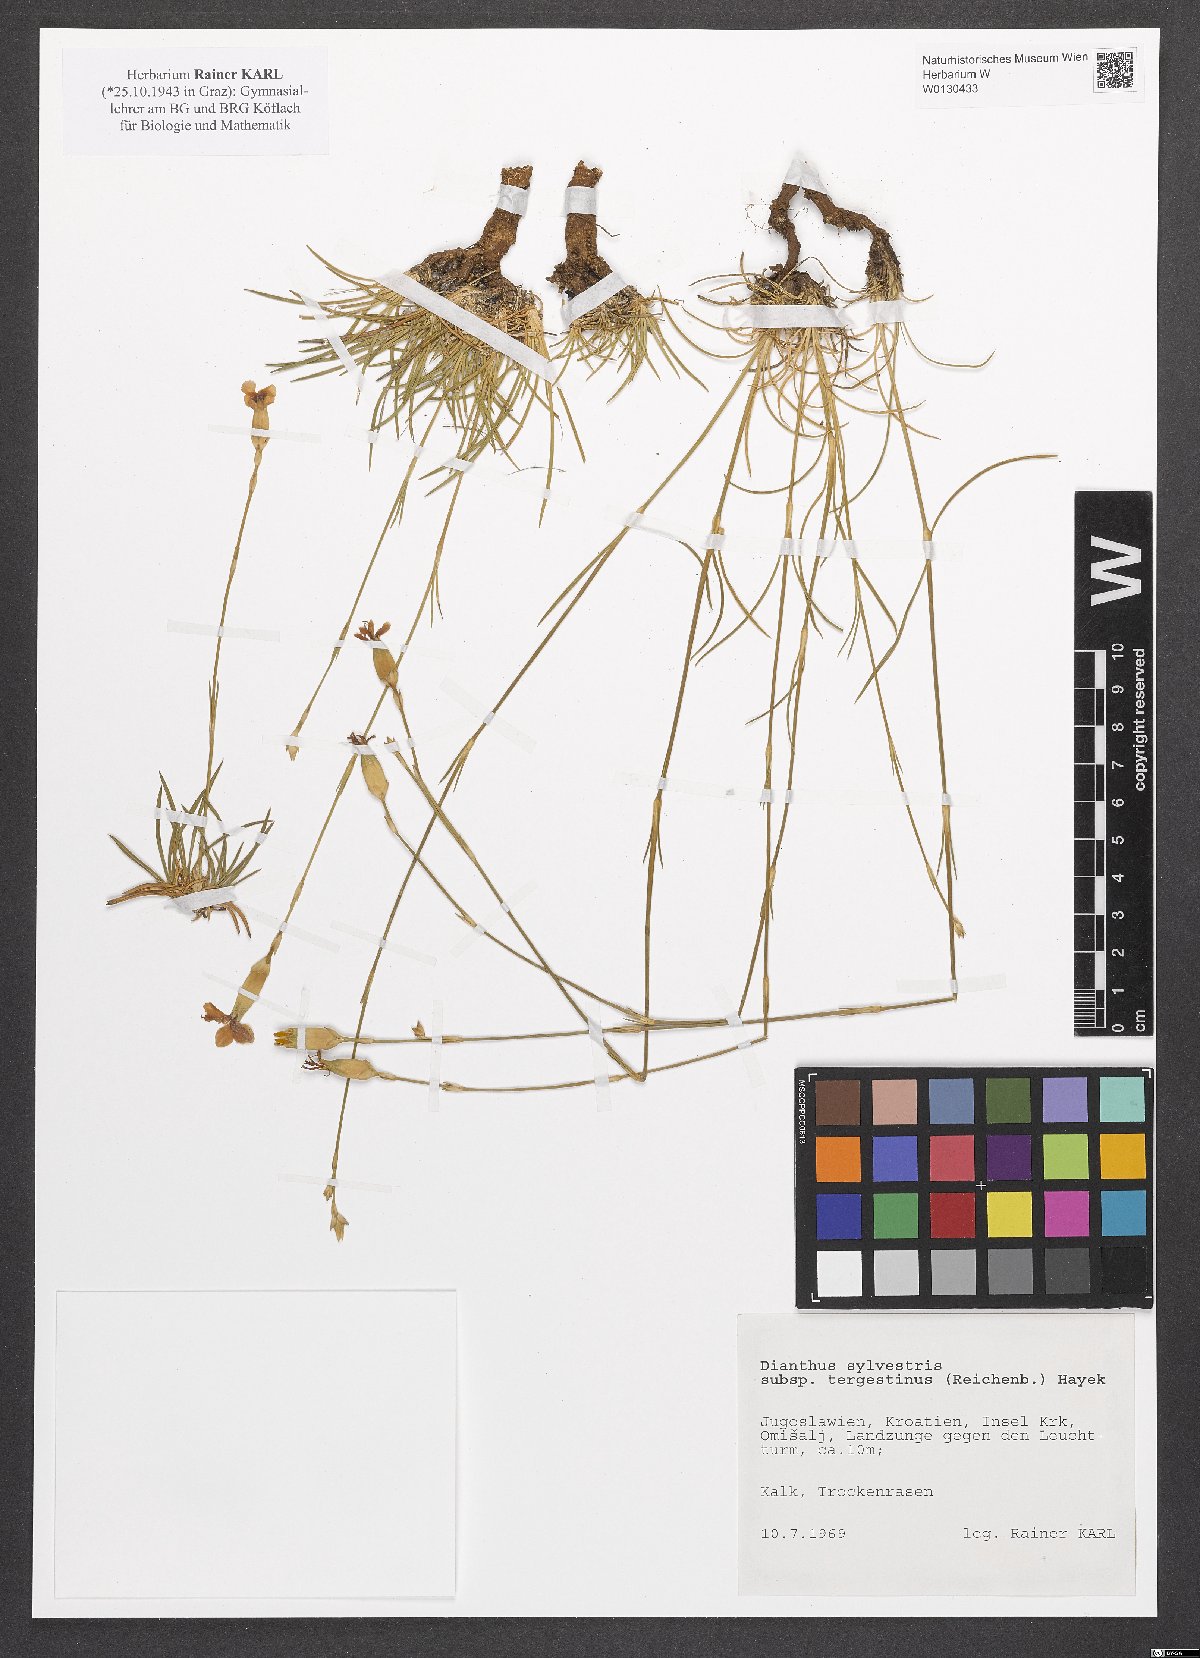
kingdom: Plantae
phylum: Tracheophyta
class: Magnoliopsida
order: Caryophyllales
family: Caryophyllaceae
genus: Dianthus
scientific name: Dianthus sylvestris
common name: Wood pink
